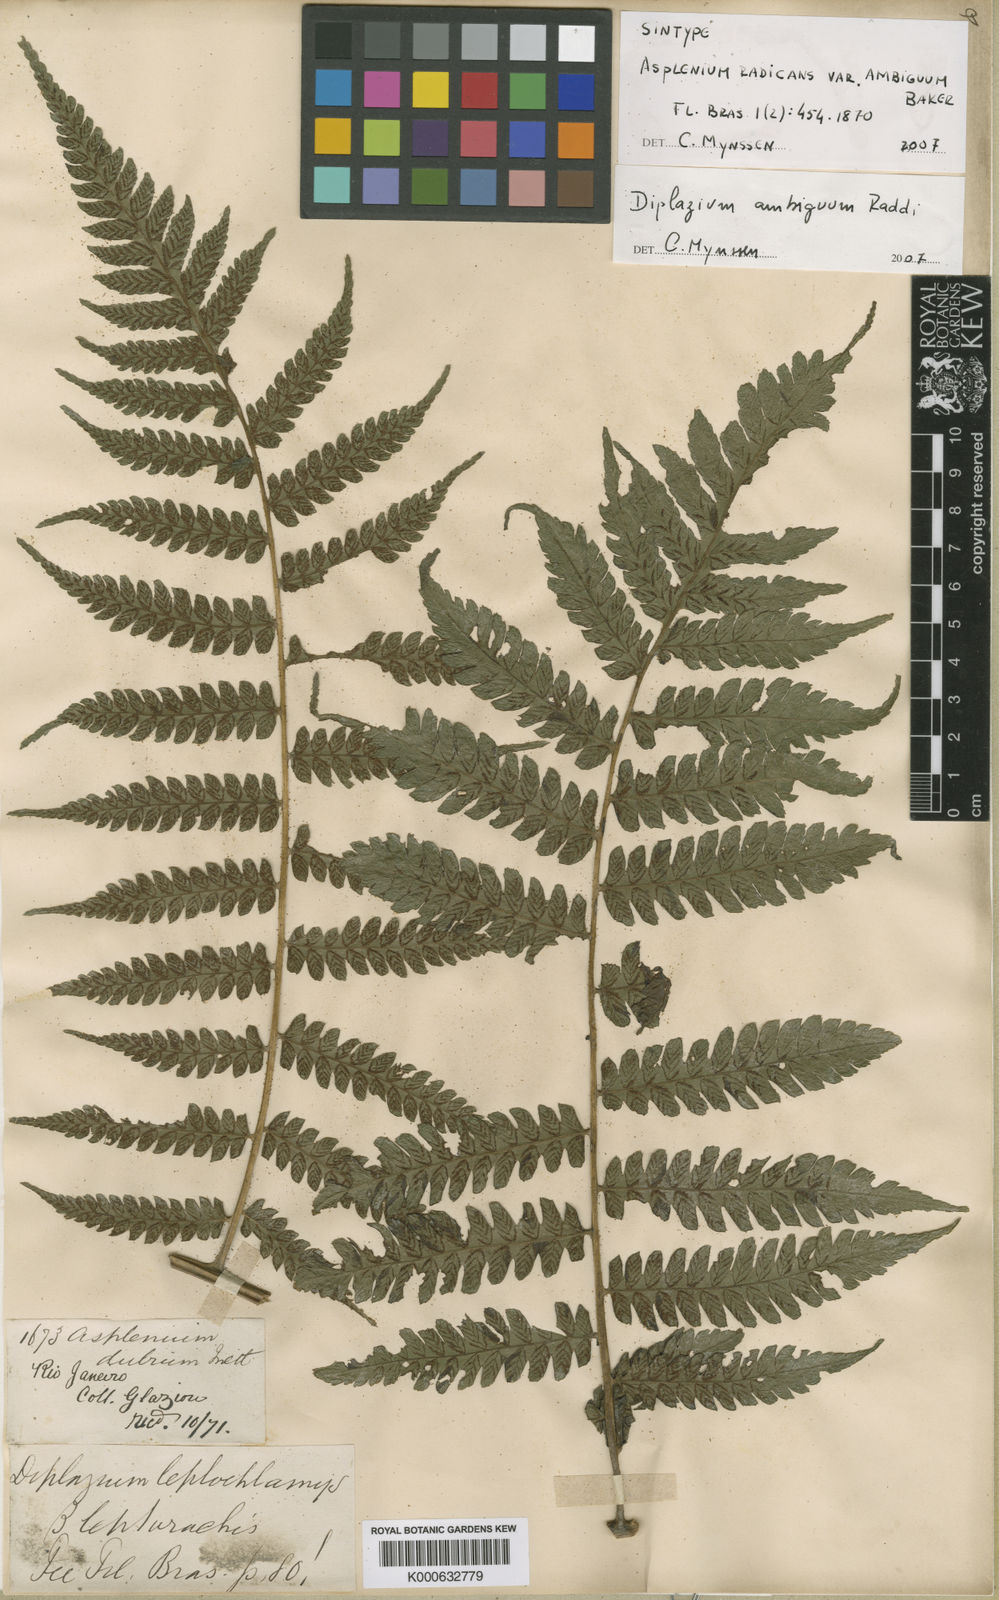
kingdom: Plantae
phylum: Tracheophyta
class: Polypodiopsida
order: Polypodiales
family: Athyriaceae
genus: Diplazium
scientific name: Diplazium ambiguum
